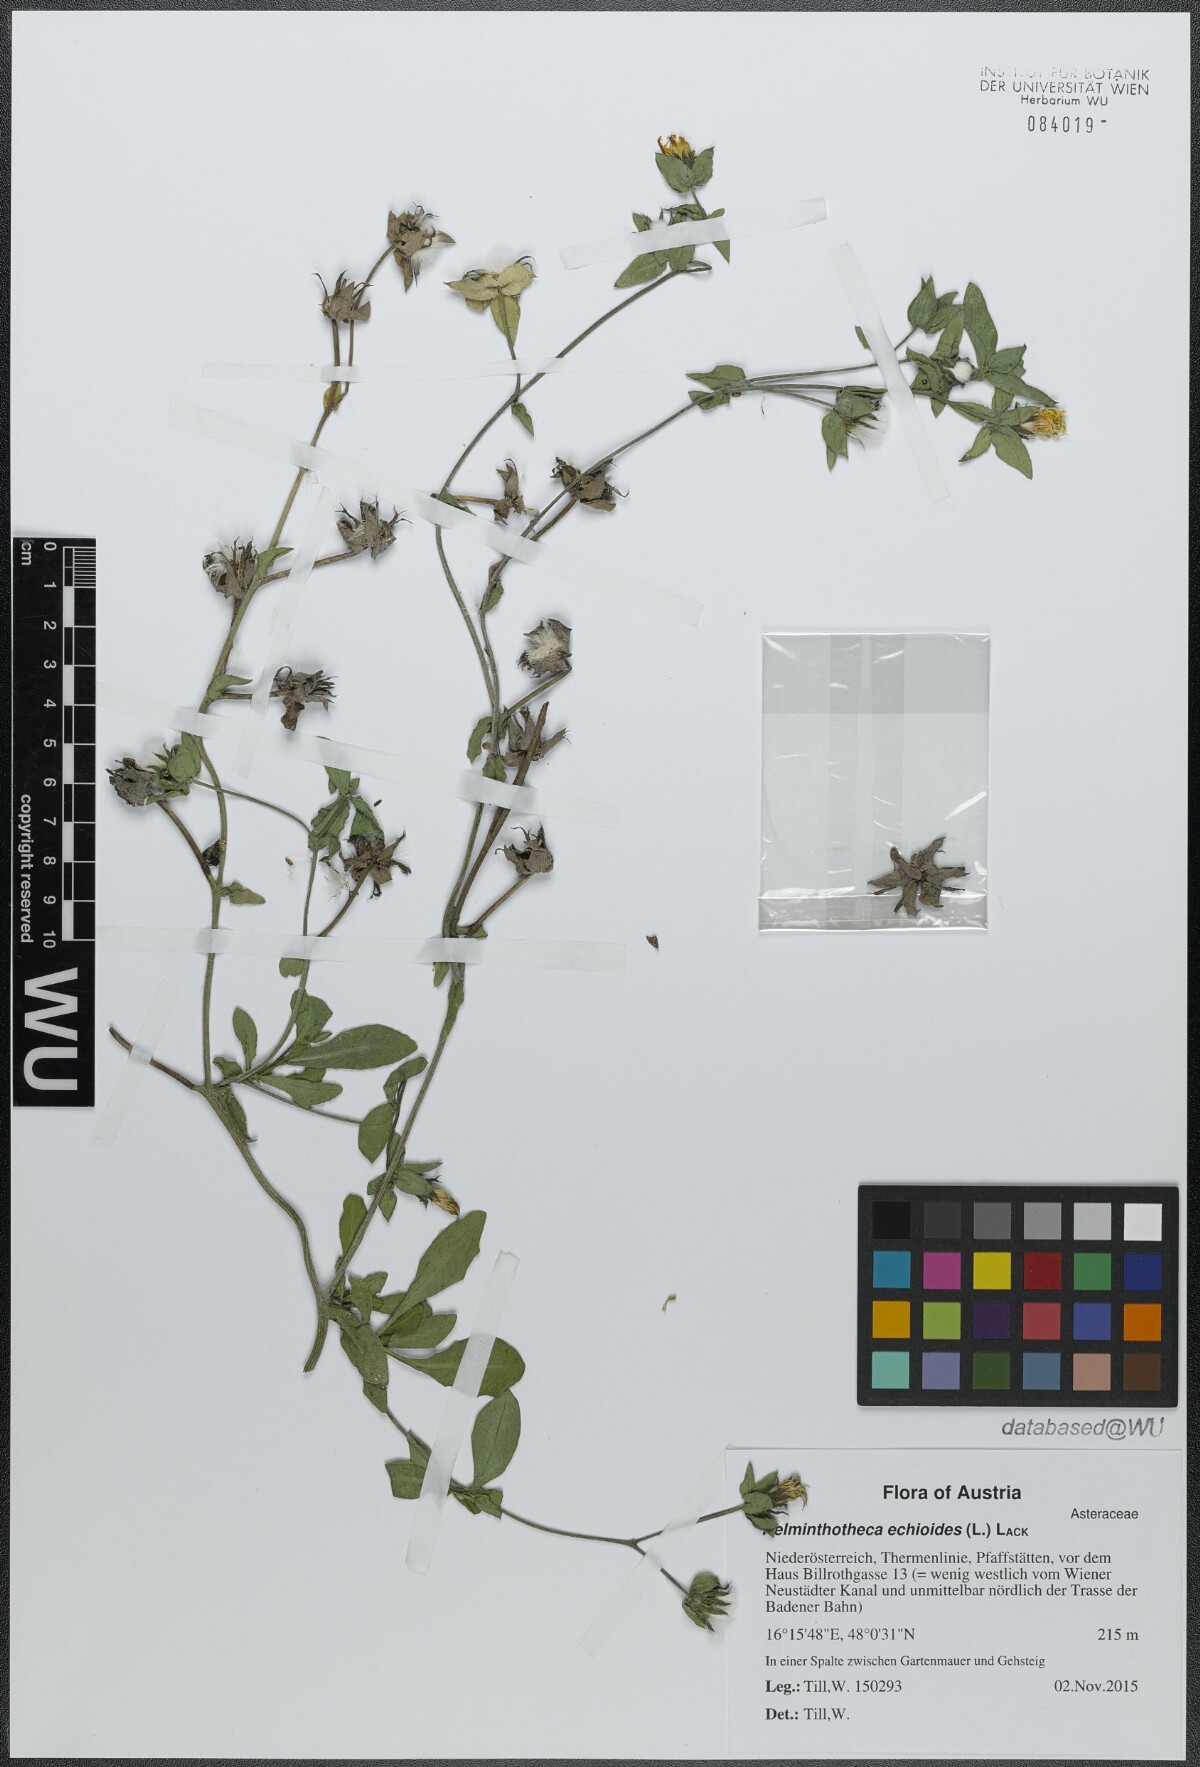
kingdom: Plantae
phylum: Tracheophyta
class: Magnoliopsida
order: Asterales
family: Asteraceae
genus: Helminthotheca
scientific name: Helminthotheca echioides
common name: Ox-tongue
